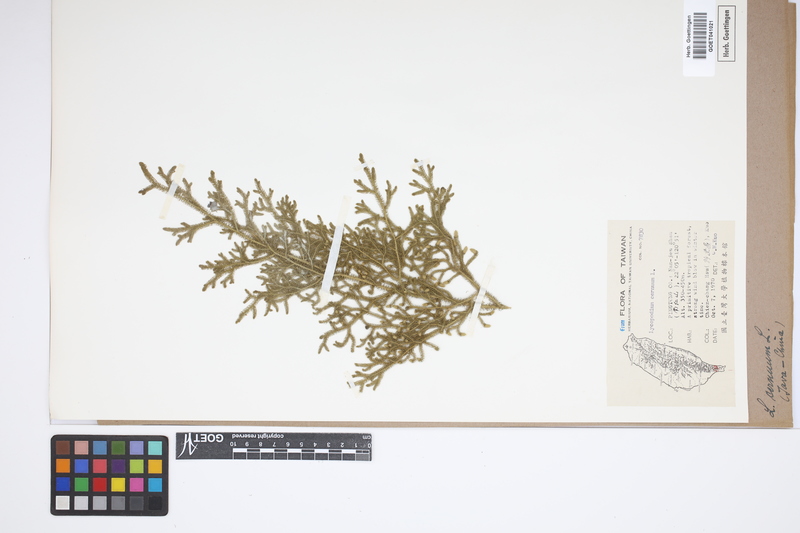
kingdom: Plantae
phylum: Tracheophyta
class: Lycopodiopsida
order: Lycopodiales
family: Lycopodiaceae
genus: Palhinhaea
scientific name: Palhinhaea cernua
